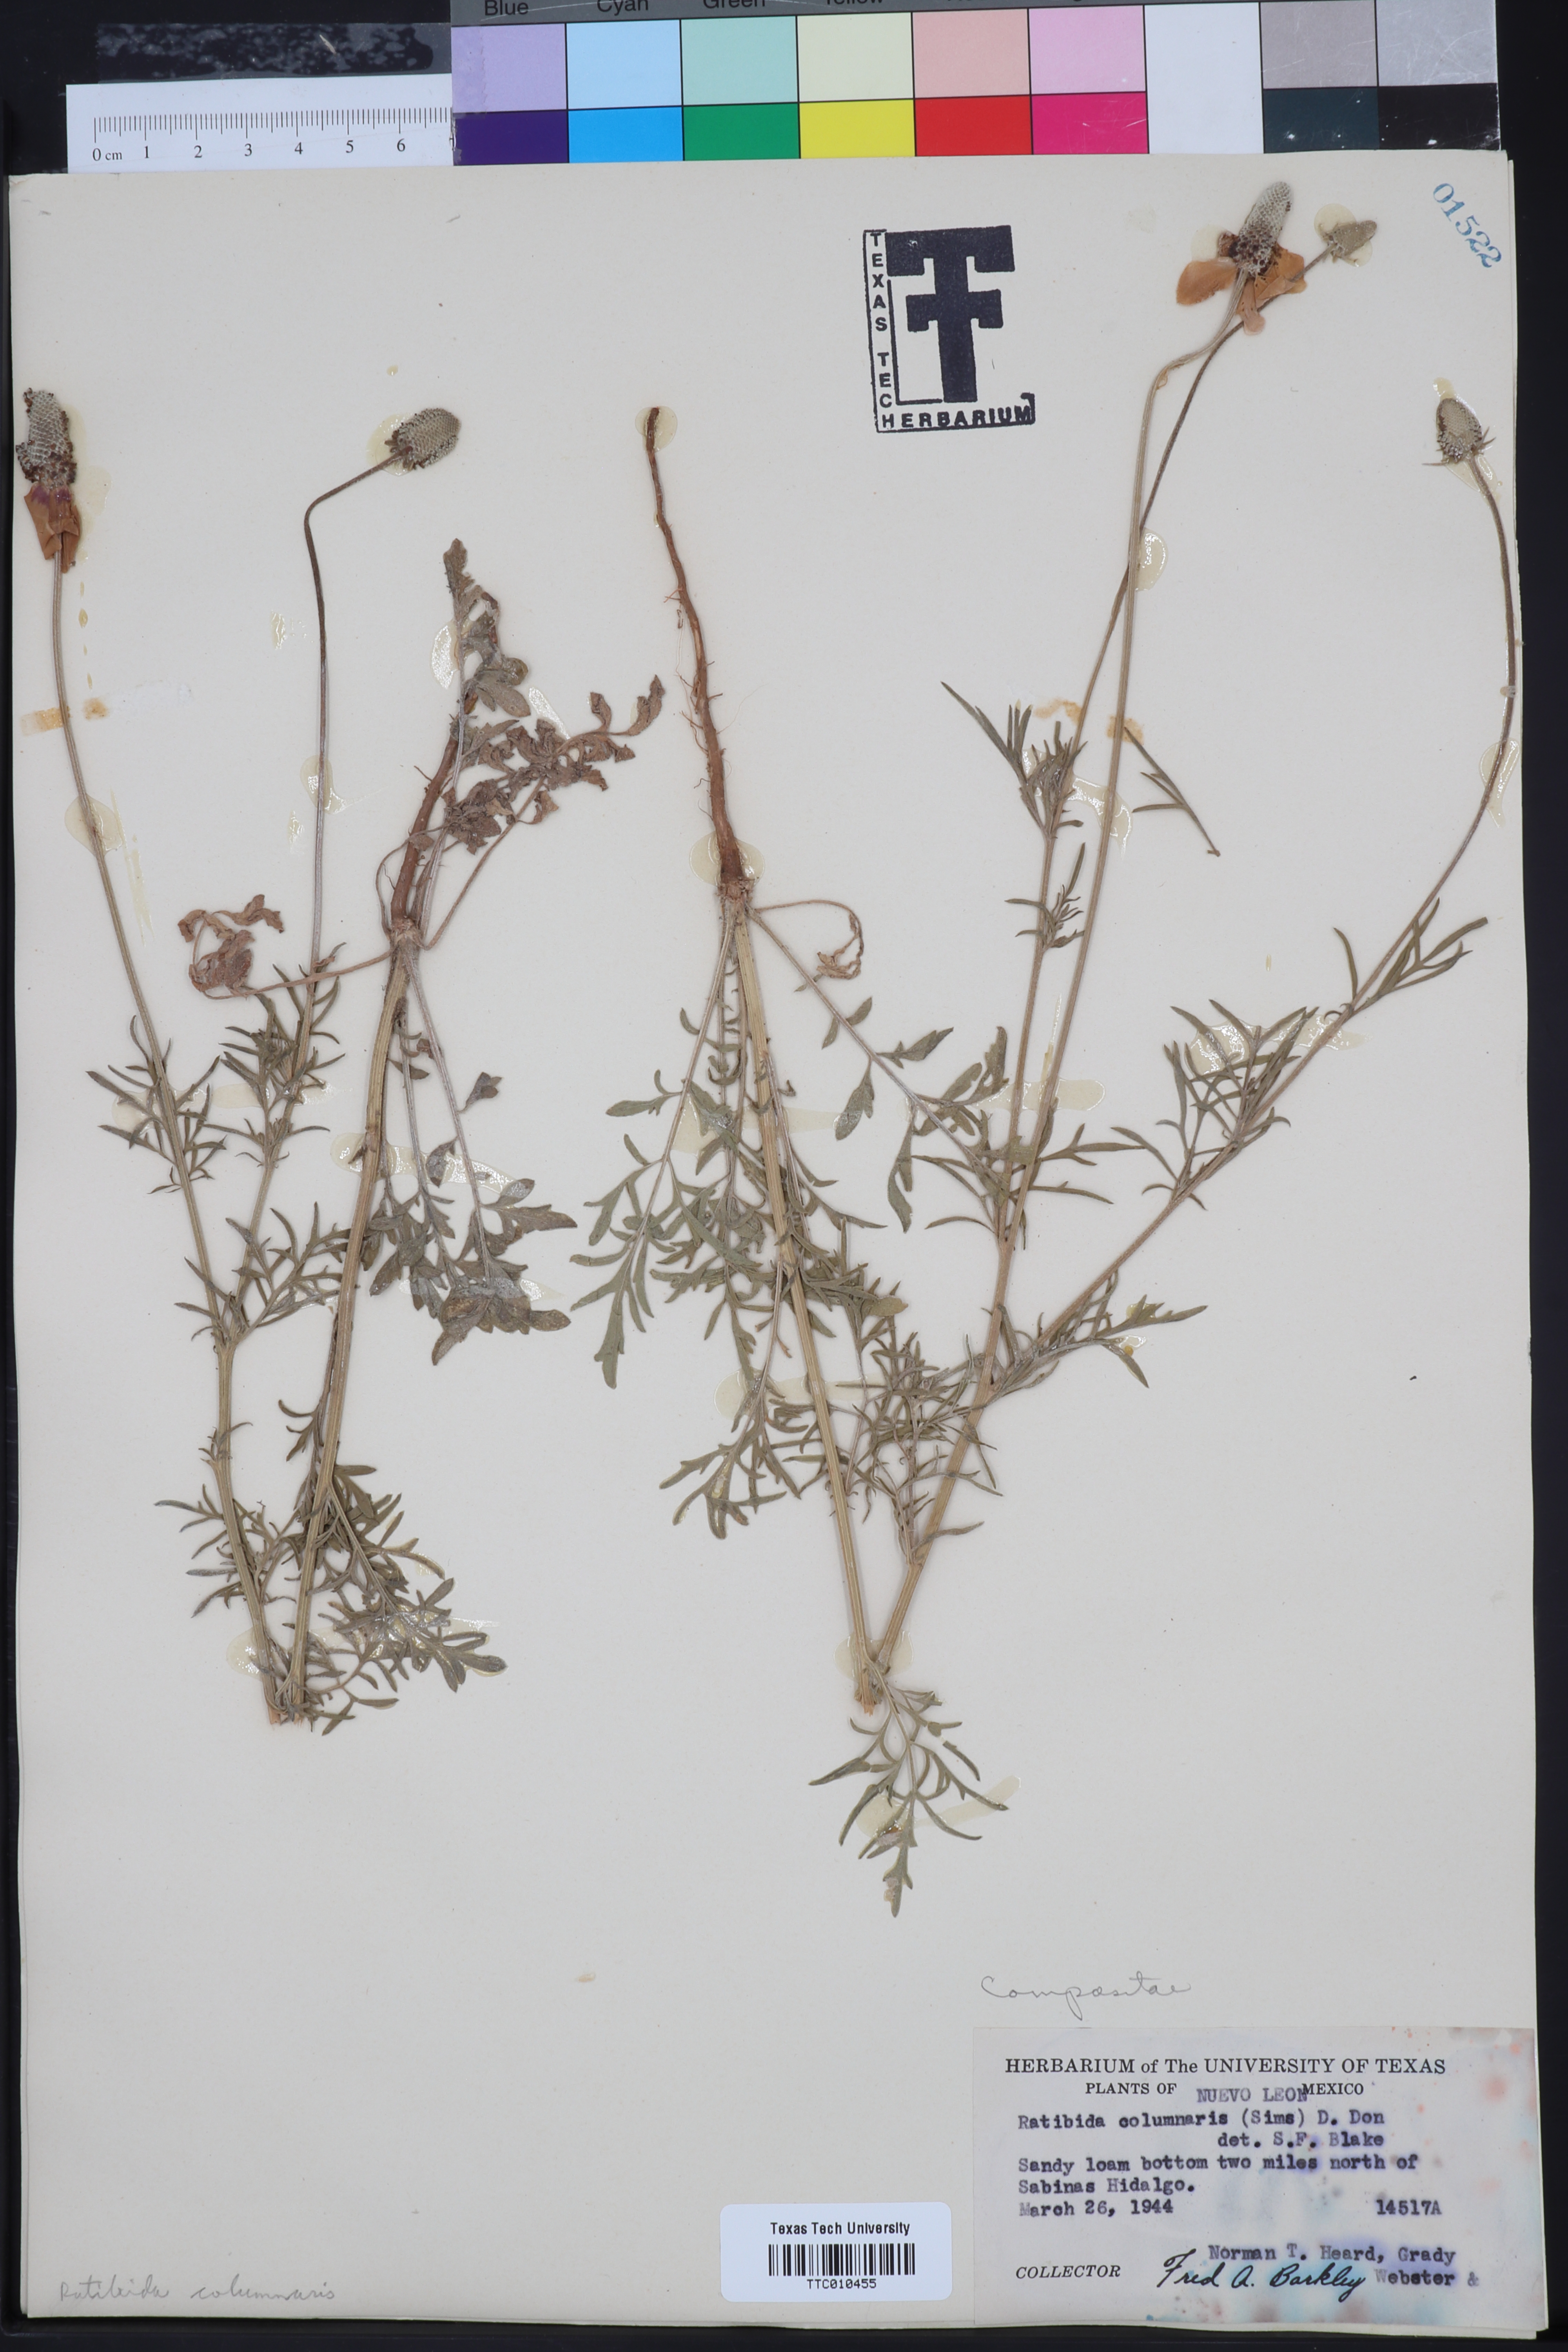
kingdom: Plantae
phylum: Tracheophyta
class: Magnoliopsida
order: Asterales
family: Asteraceae
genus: Ratibida
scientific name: Ratibida columnifera
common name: Prairie coneflower
